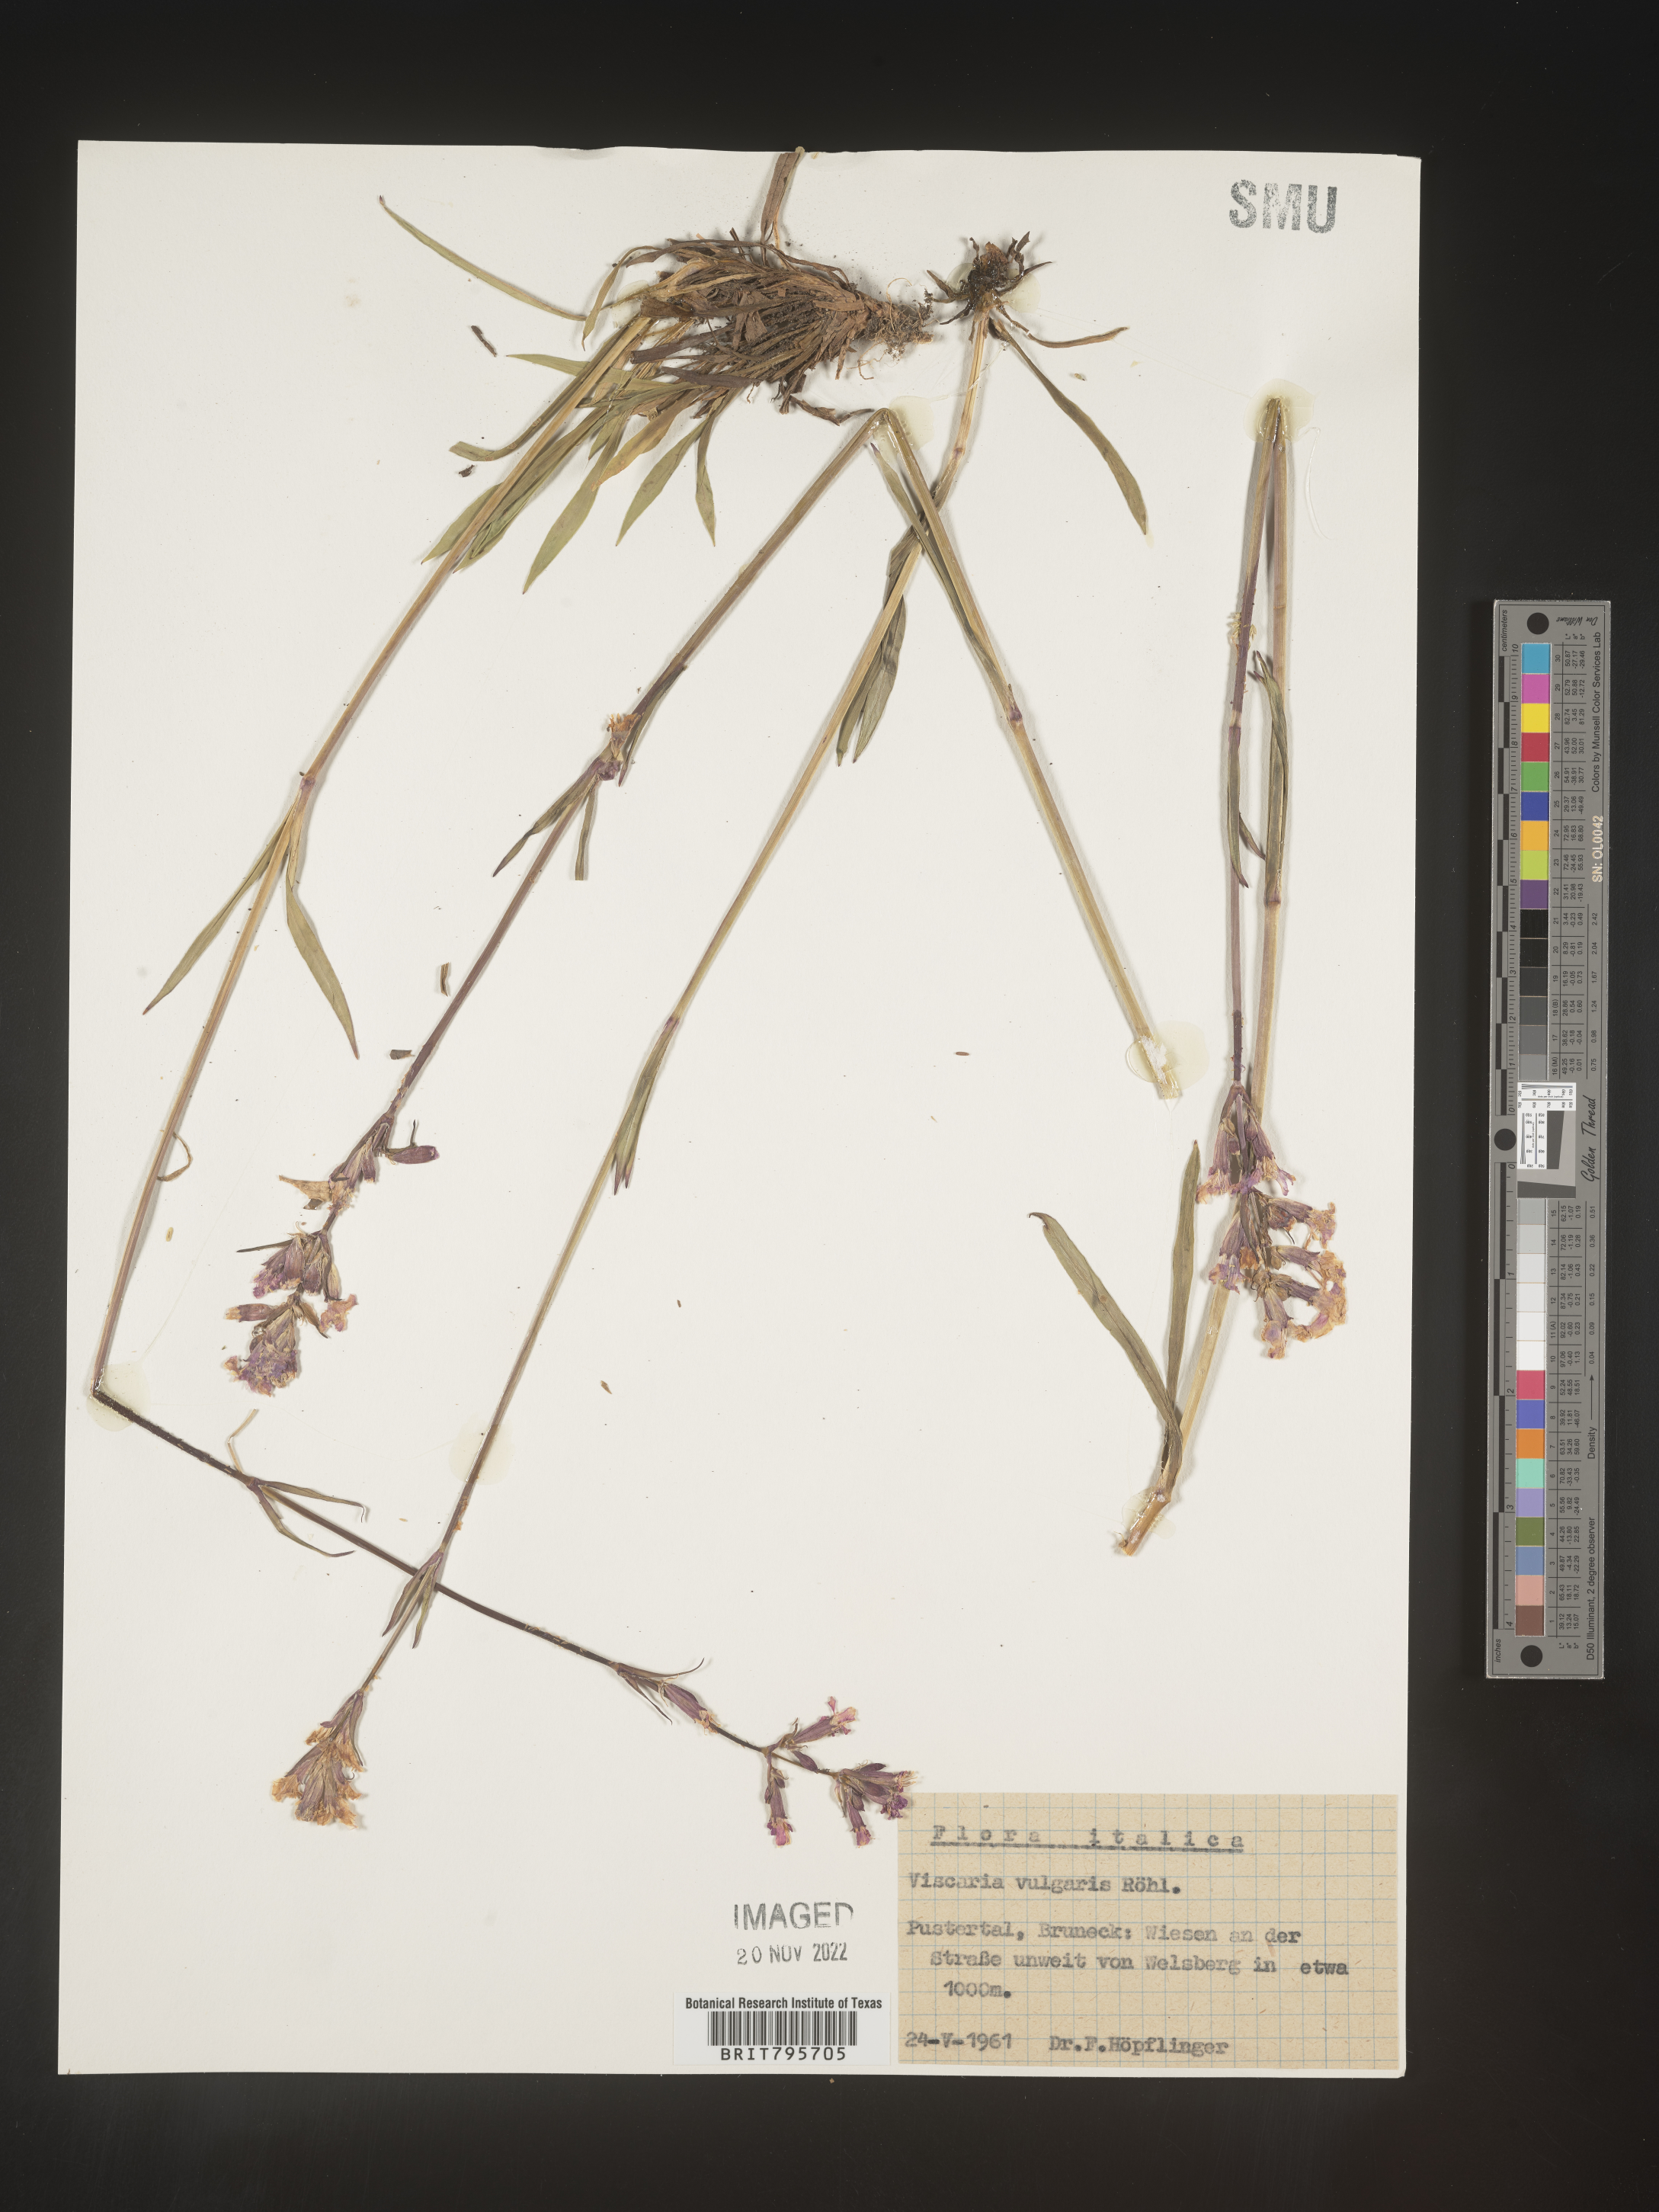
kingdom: Plantae
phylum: Tracheophyta
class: Magnoliopsida
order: Caryophyllales
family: Caryophyllaceae
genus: Viscaria
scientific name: Viscaria
